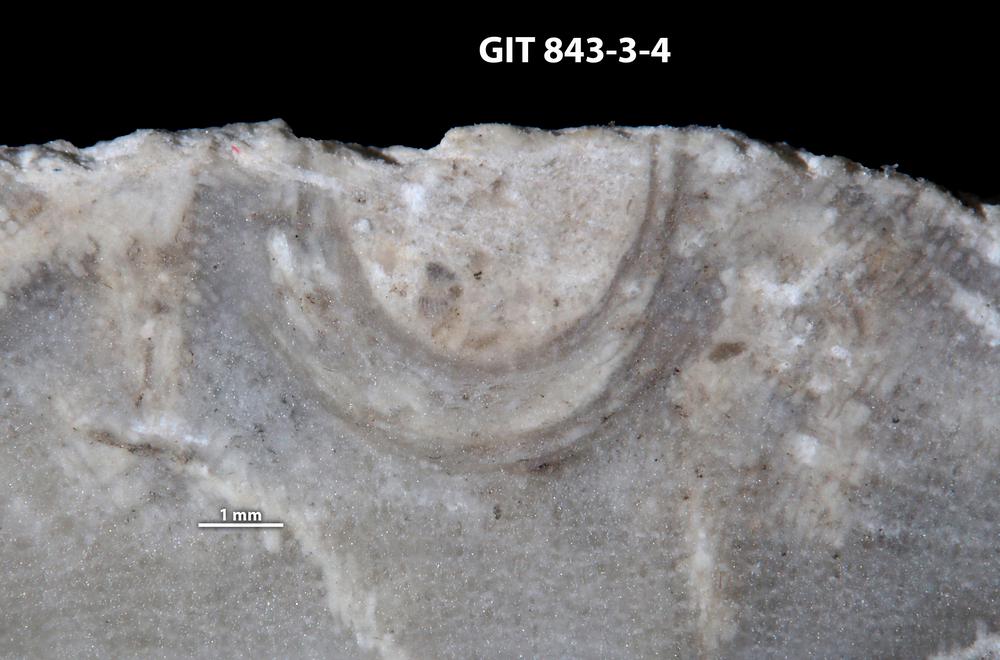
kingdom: Animalia
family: Cornulitidae
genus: Cornulites
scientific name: Cornulites
